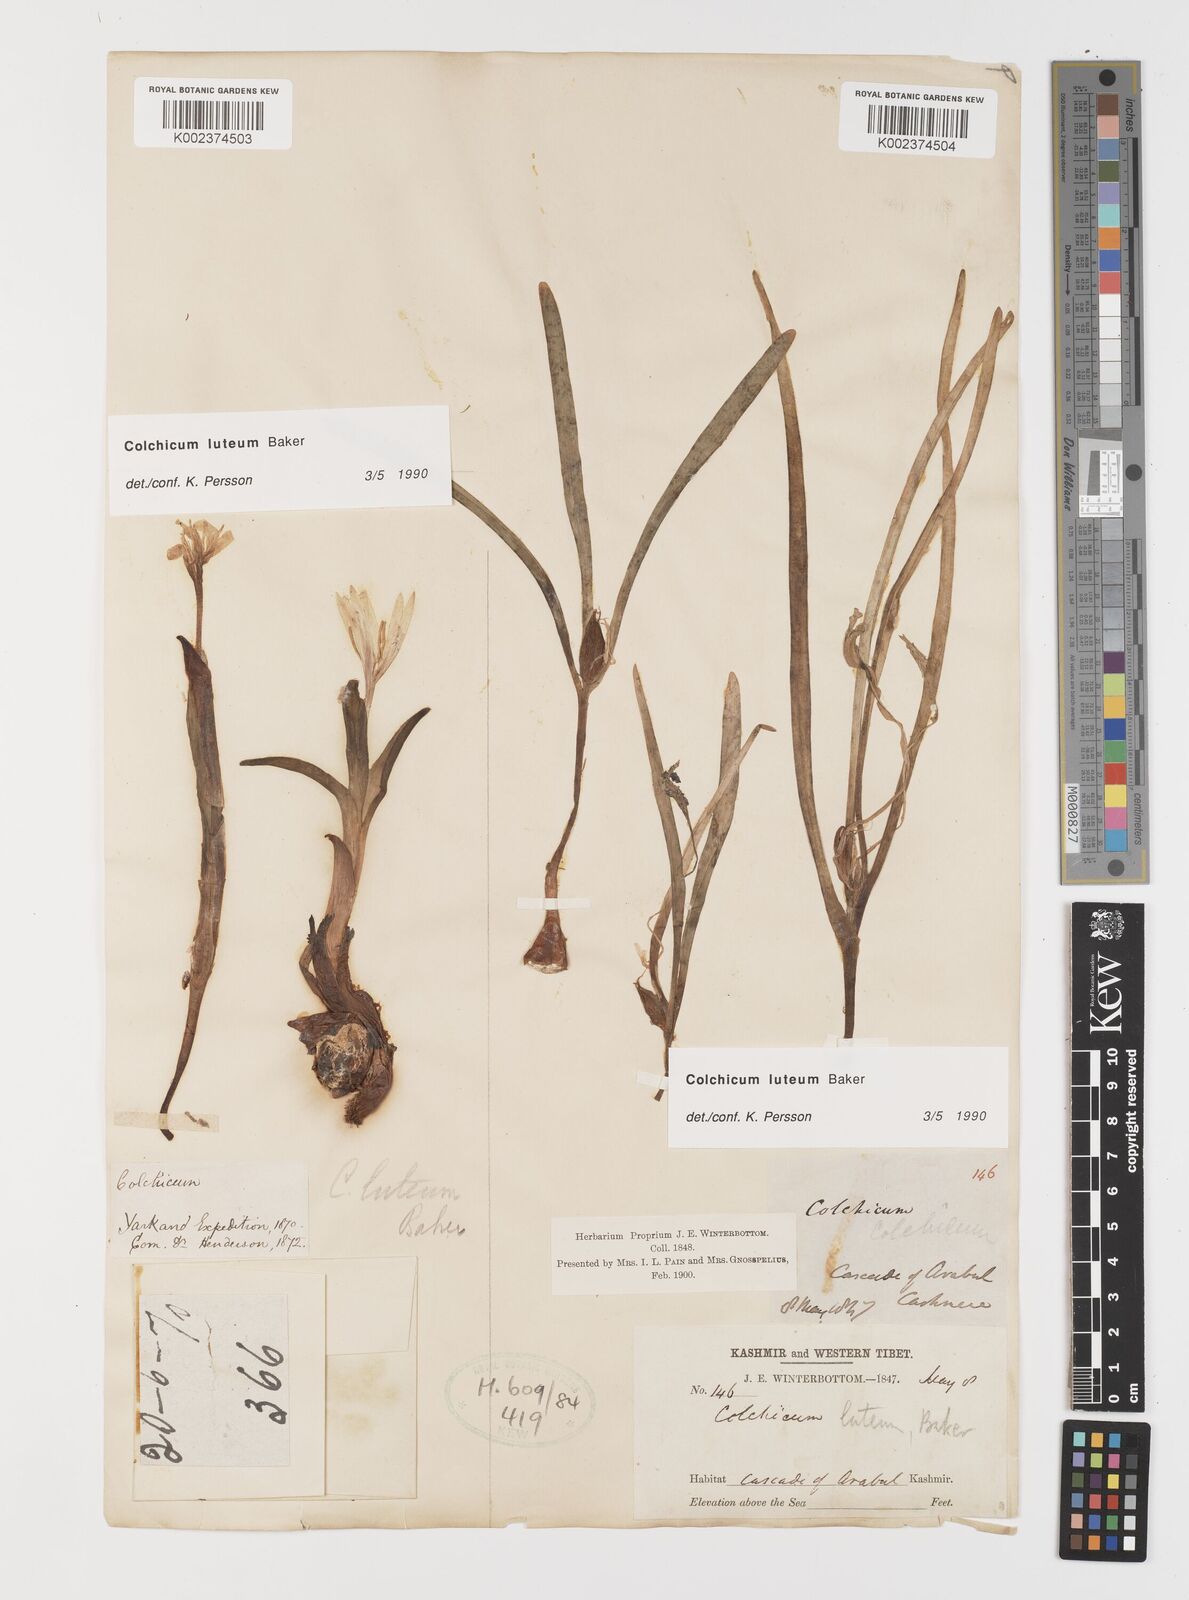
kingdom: Plantae
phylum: Tracheophyta
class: Liliopsida
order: Liliales
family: Colchicaceae
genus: Colchicum
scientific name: Colchicum luteum
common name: Indian colchicum
